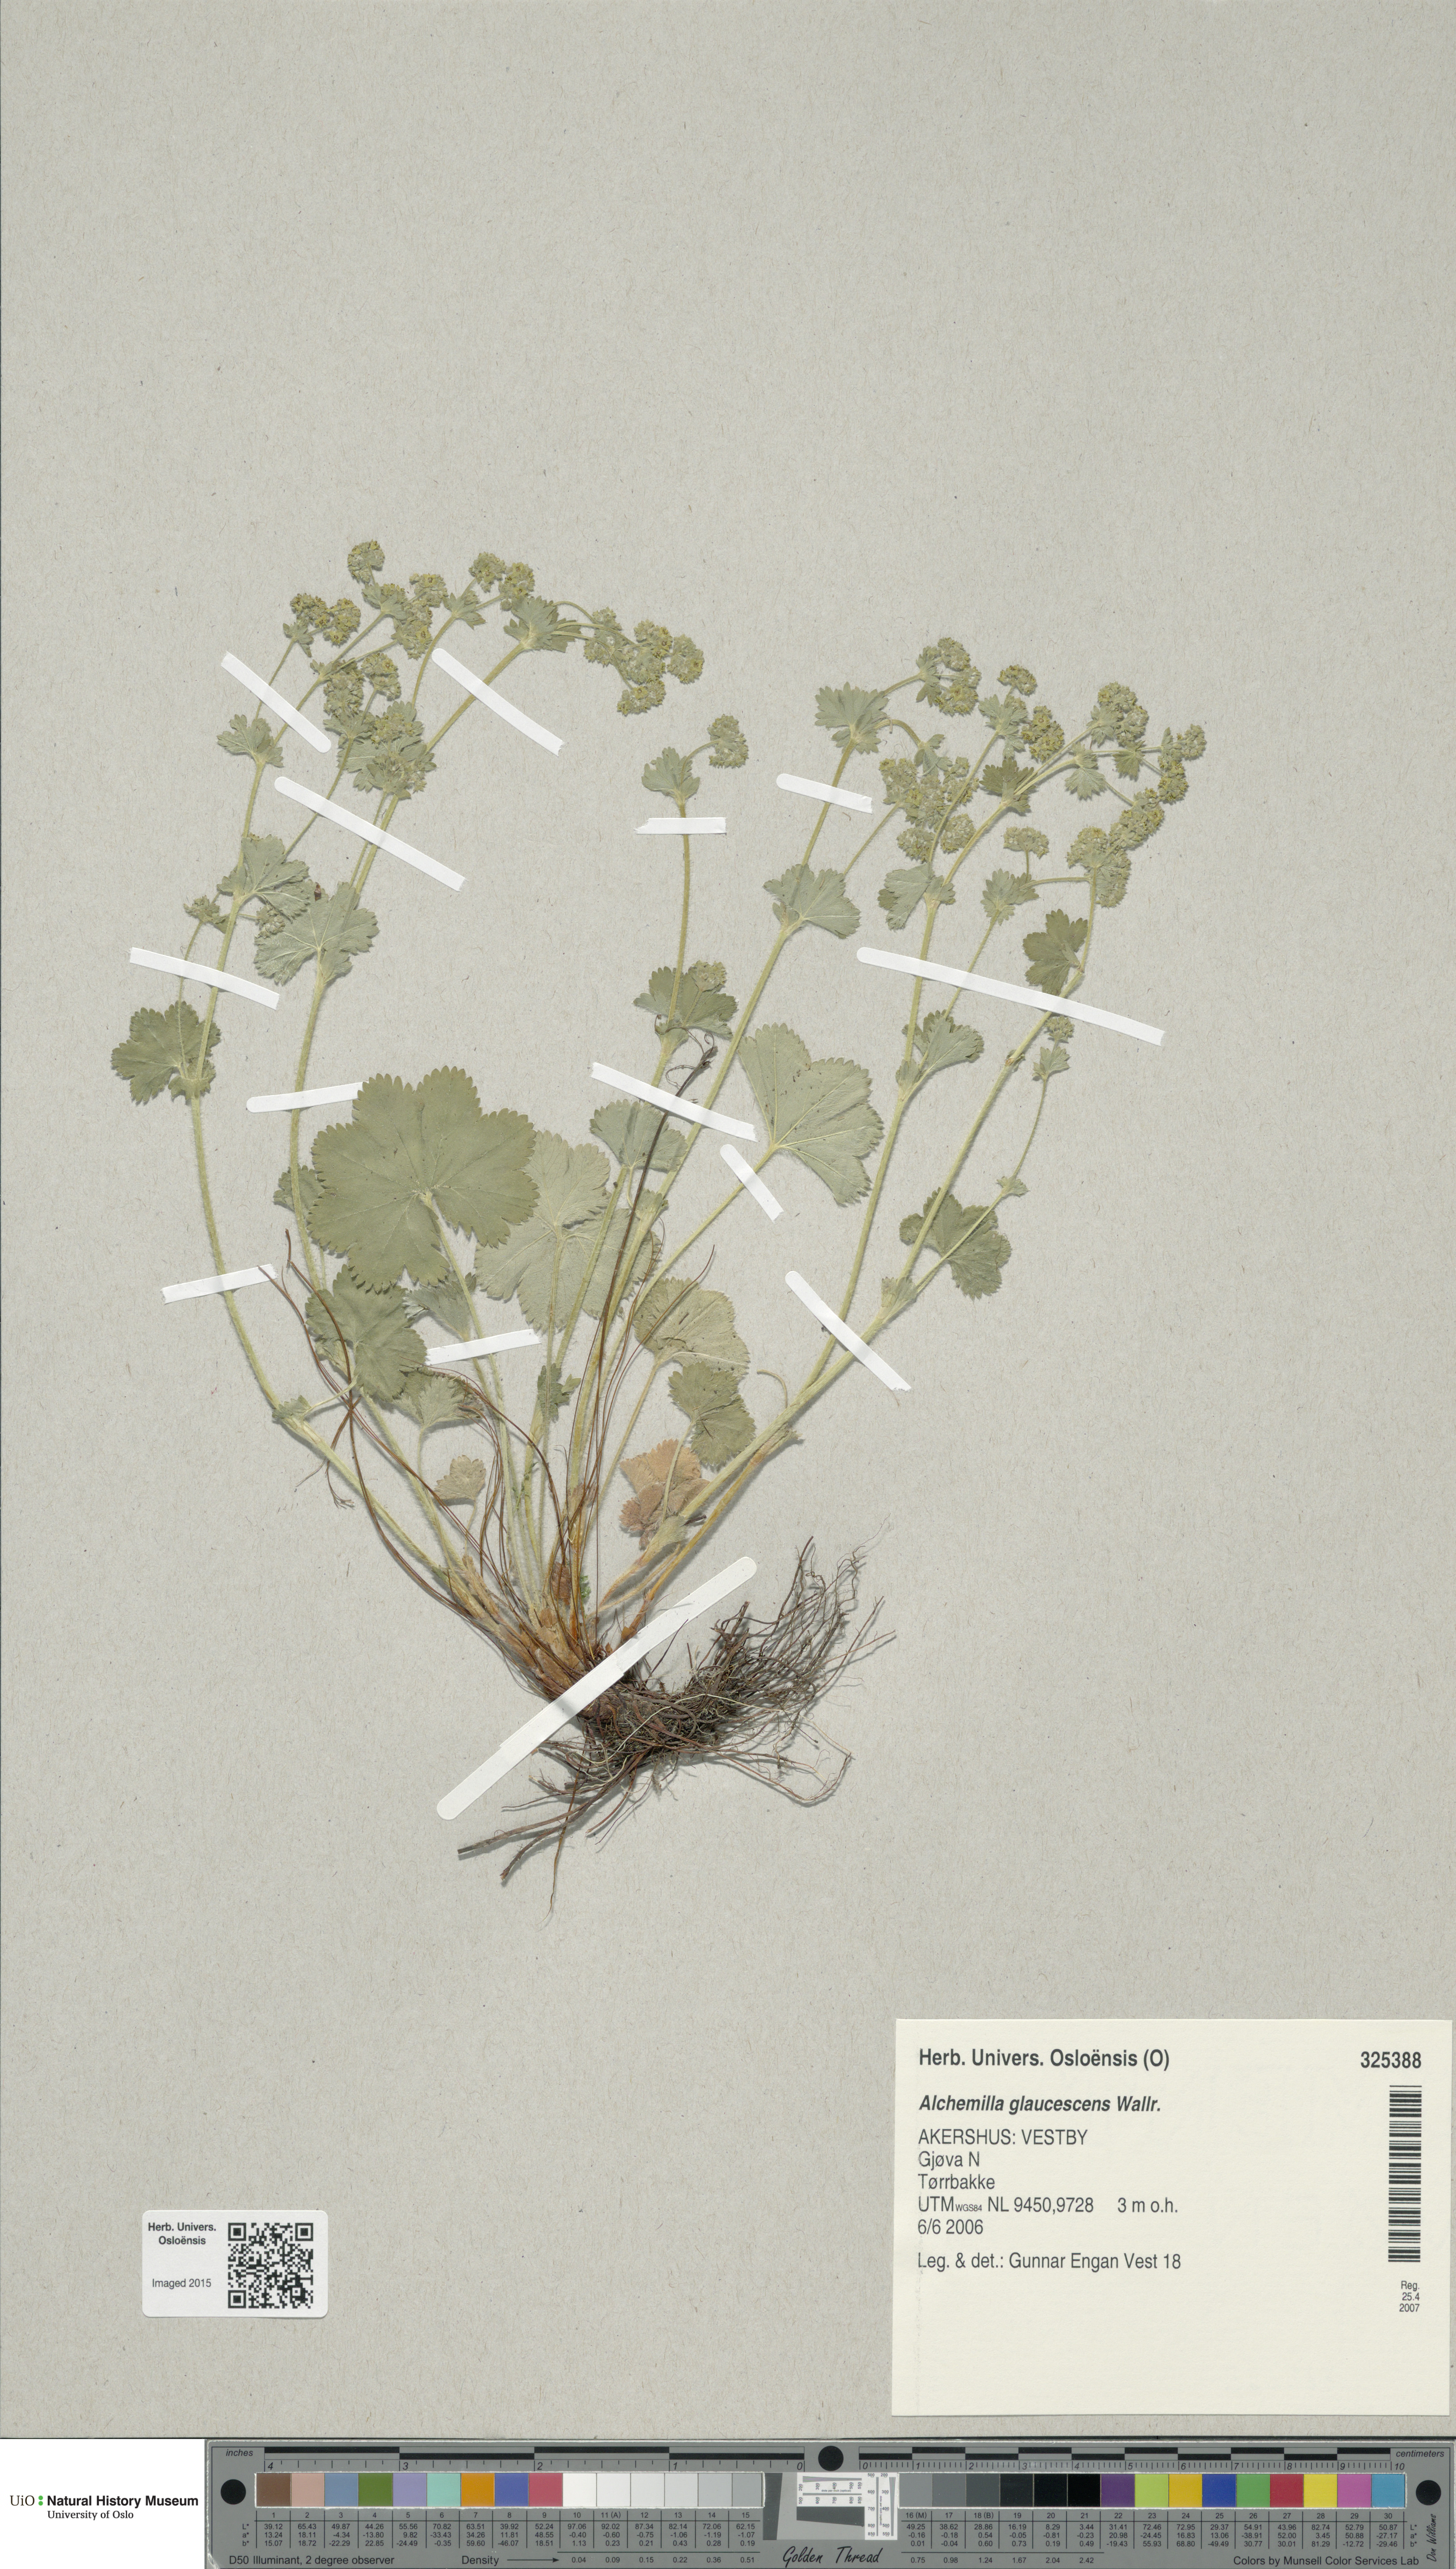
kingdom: Plantae
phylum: Tracheophyta
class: Magnoliopsida
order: Rosales
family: Rosaceae
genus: Alchemilla
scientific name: Alchemilla glaucescens
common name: Silky lady's mantle
